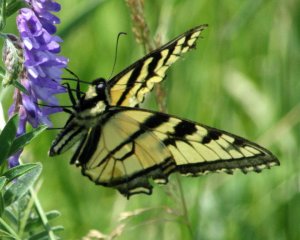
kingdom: Animalia
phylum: Arthropoda
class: Insecta
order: Lepidoptera
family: Papilionidae
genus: Pterourus
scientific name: Pterourus canadensis
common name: Canadian Tiger Swallowtail
